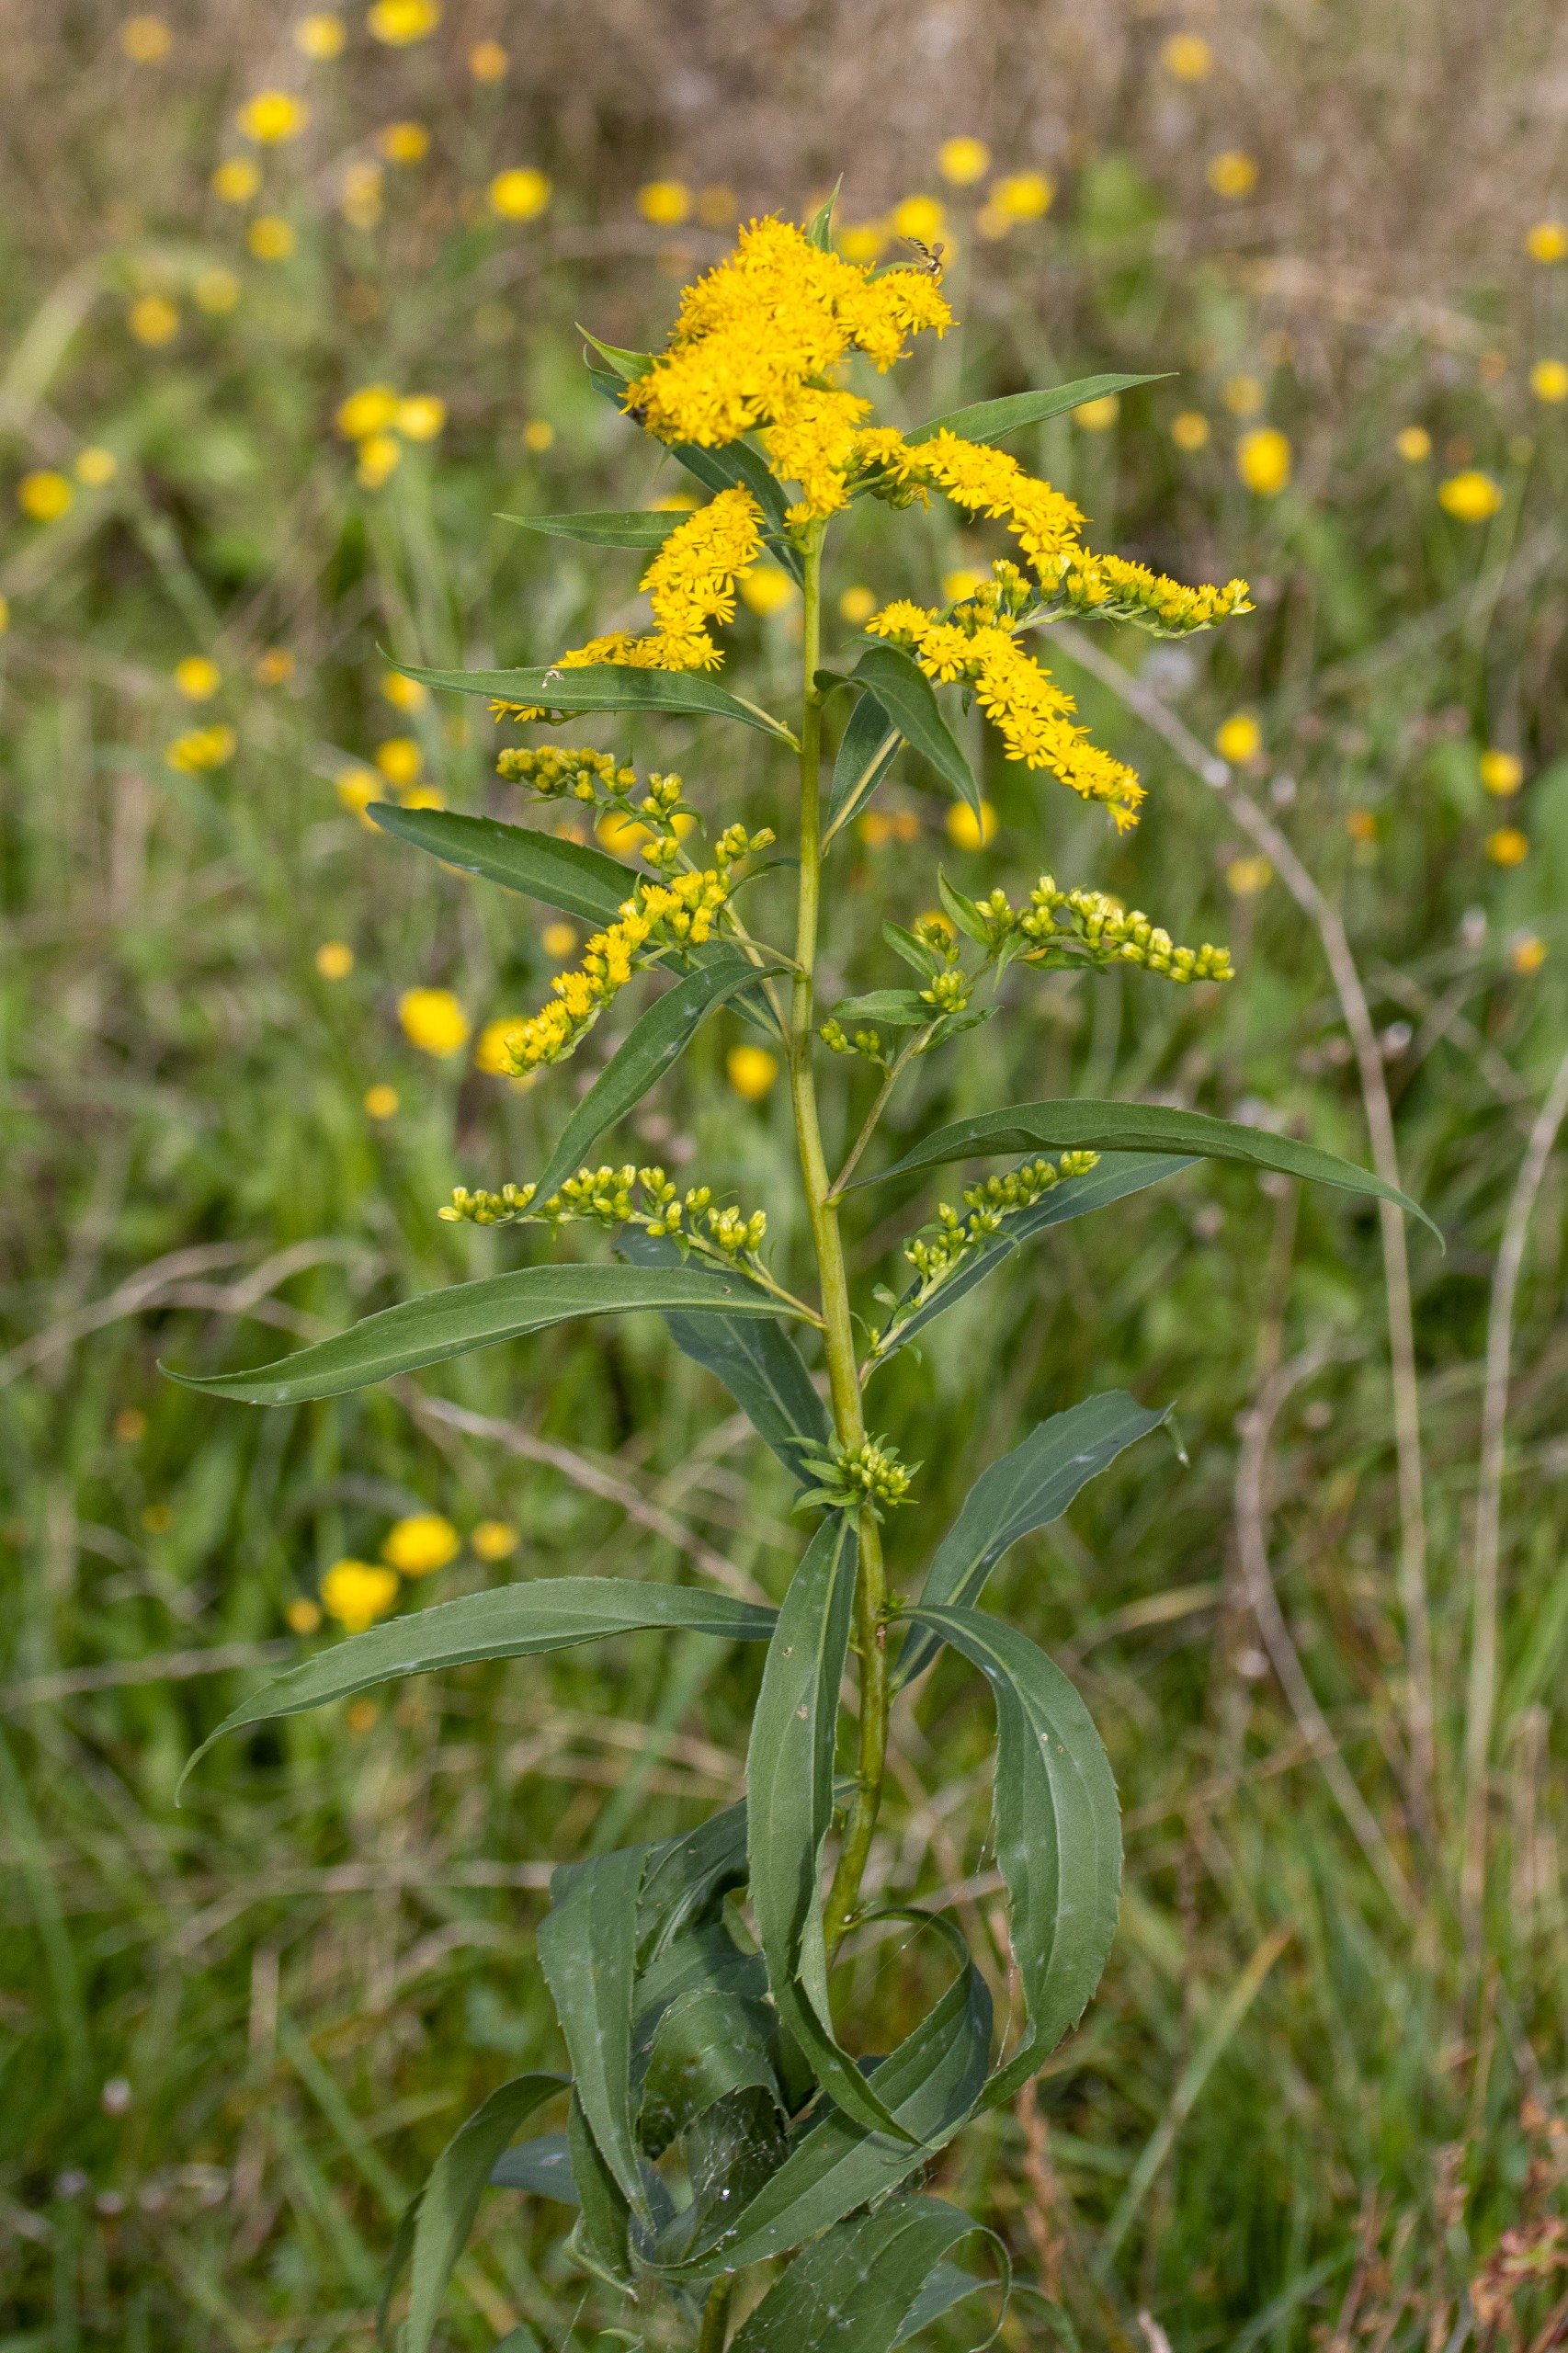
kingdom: Plantae
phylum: Tracheophyta
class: Magnoliopsida
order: Asterales
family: Asteraceae
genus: Solidago
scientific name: Solidago gigantea
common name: Sildig gyldenris
